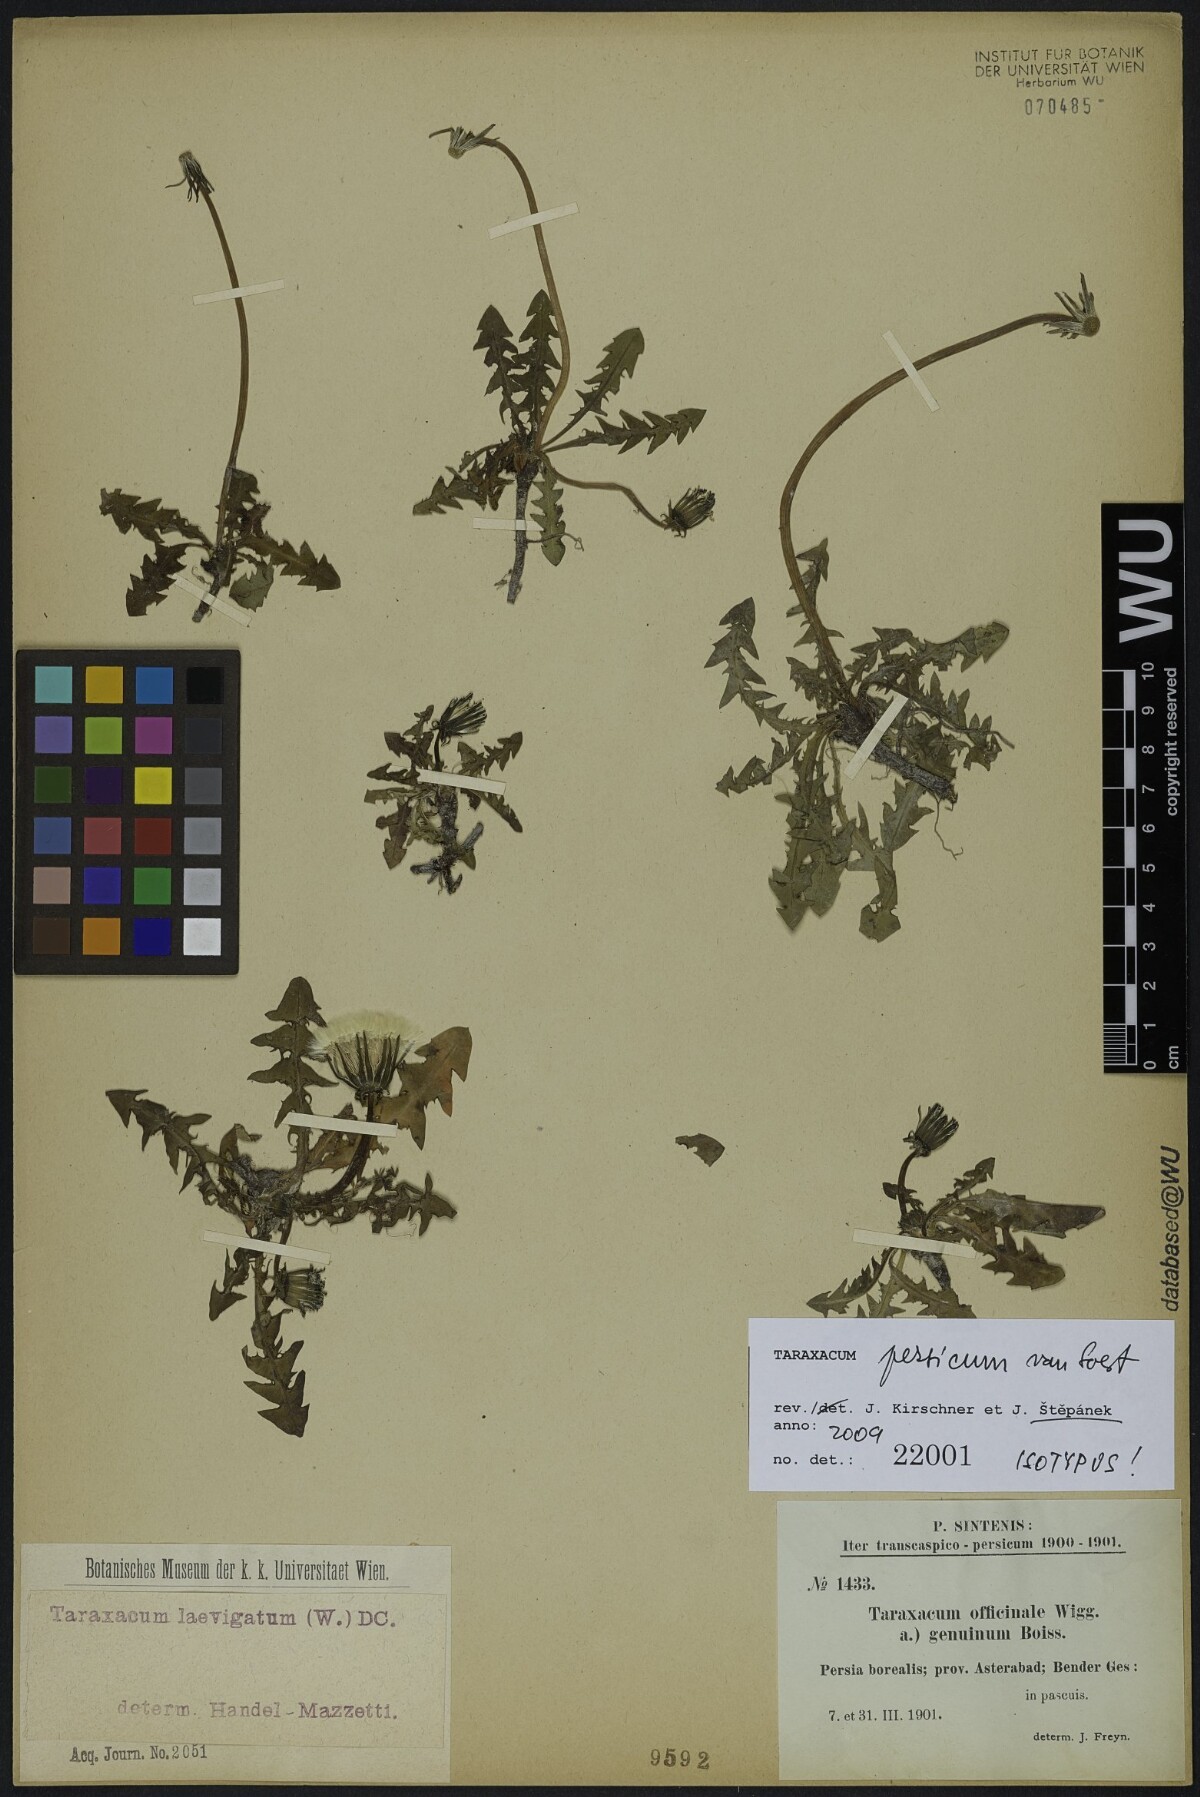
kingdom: Plantae
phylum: Tracheophyta
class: Magnoliopsida
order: Asterales
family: Asteraceae
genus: Taraxacum
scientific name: Taraxacum persicum
